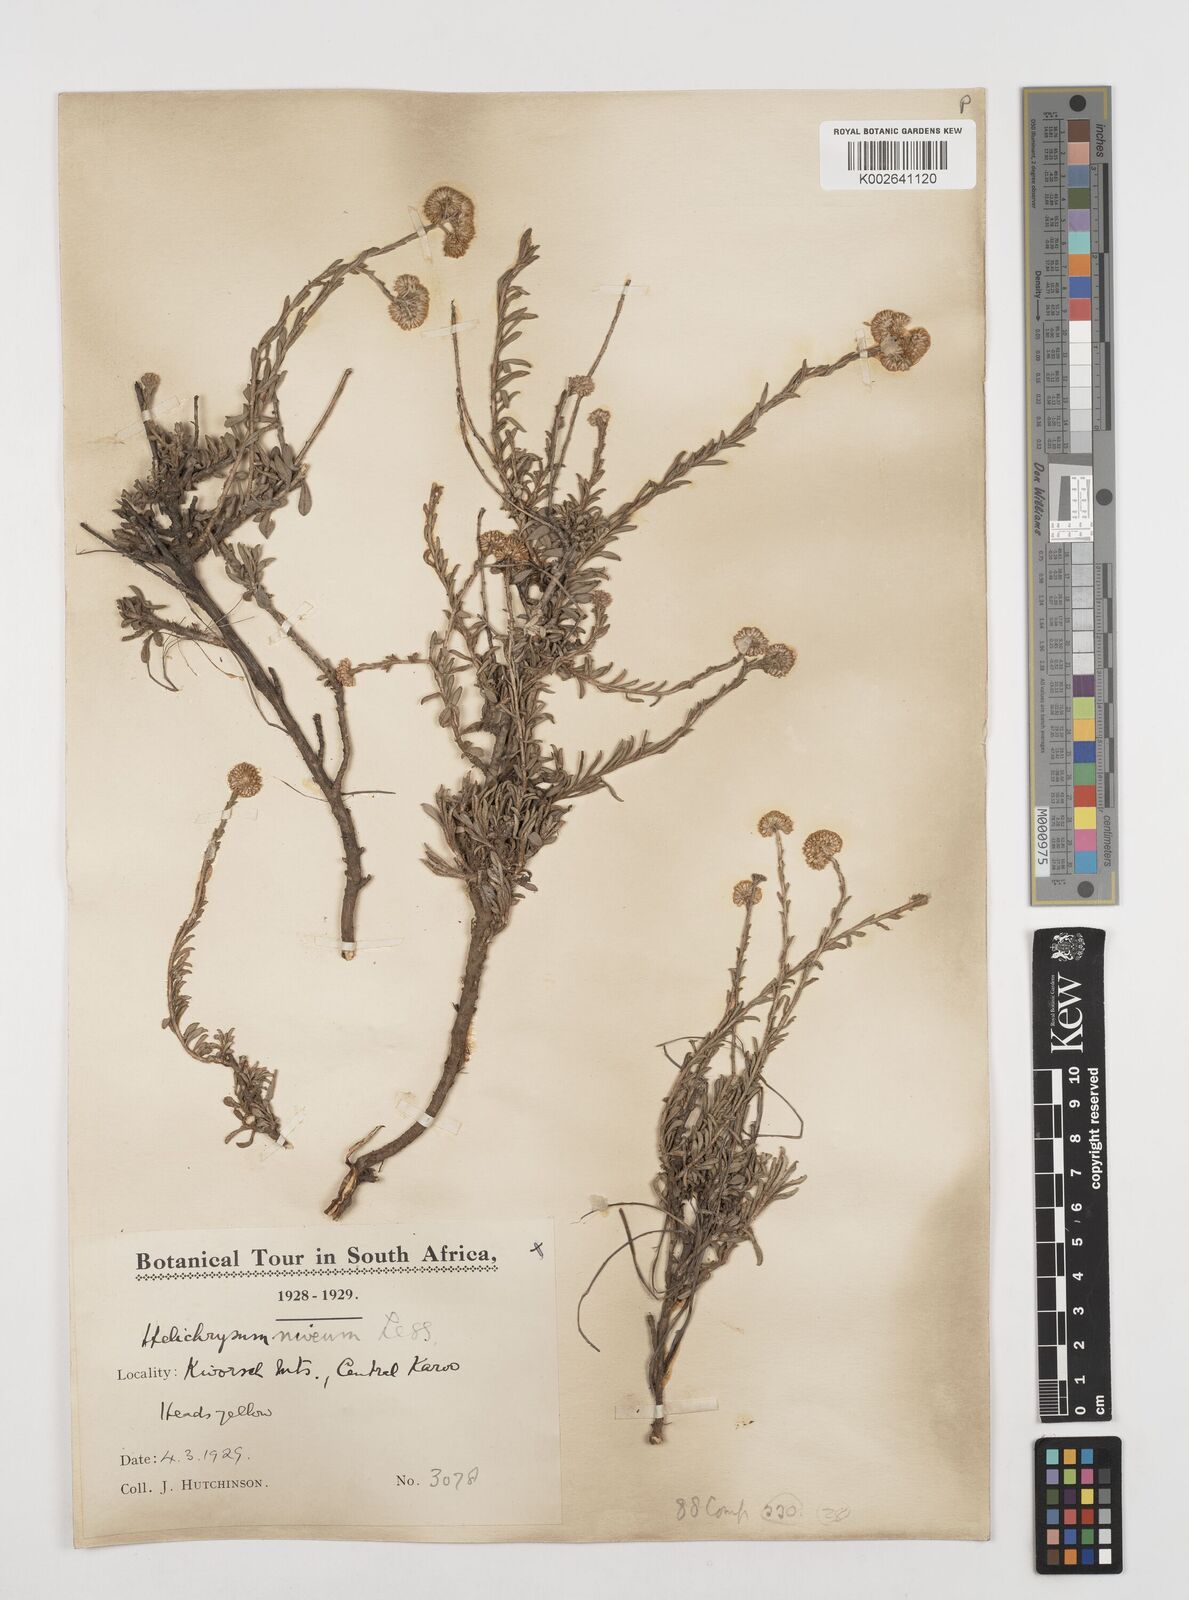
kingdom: Plantae
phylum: Tracheophyta
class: Magnoliopsida
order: Asterales
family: Asteraceae
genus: Helichrysum
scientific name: Helichrysum rutilans
